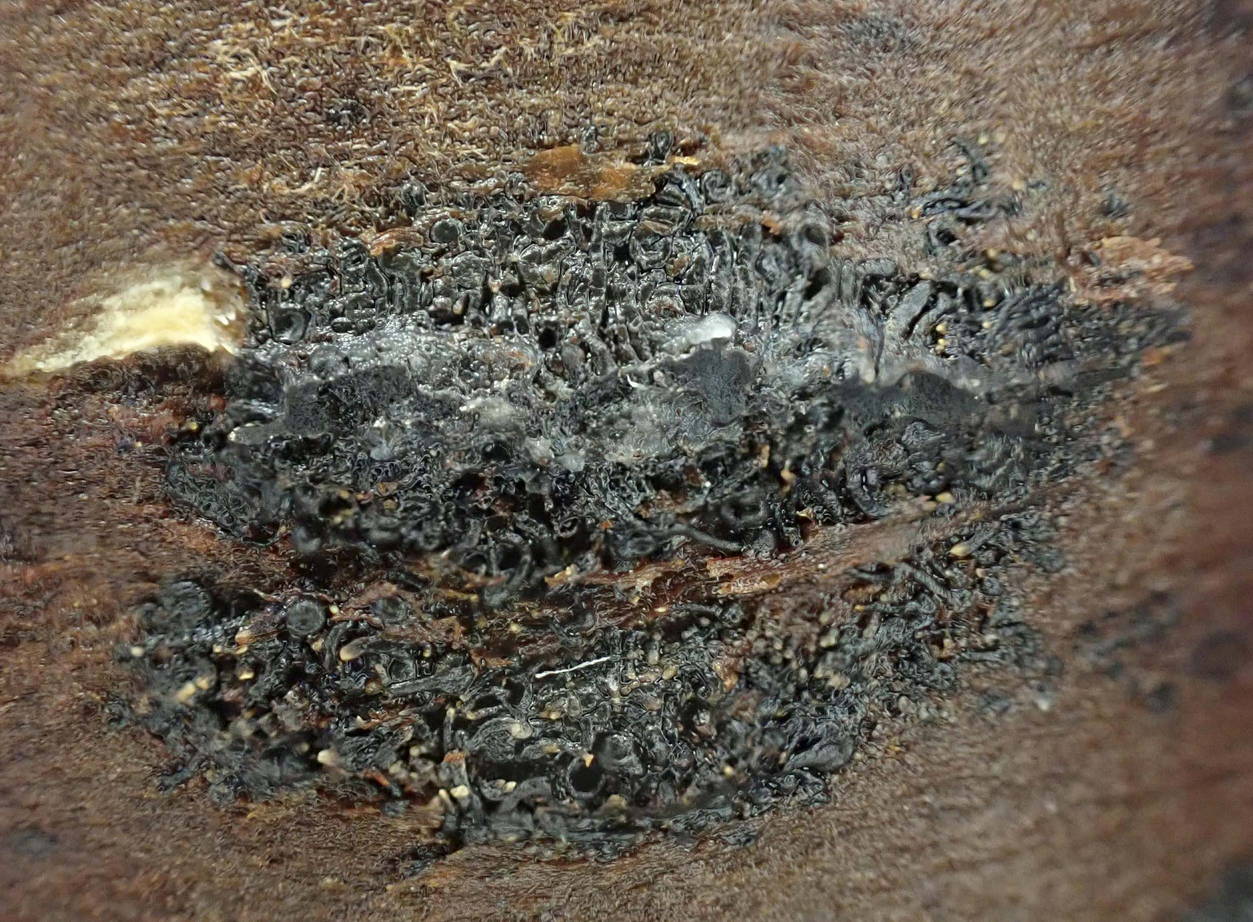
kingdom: Fungi
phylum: Ascomycota
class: Sordariomycetes
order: Calosphaeriales
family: Calosphaeriaceae
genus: Calosphaeria
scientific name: Calosphaeria pulchella
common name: smuk slyngkerne
